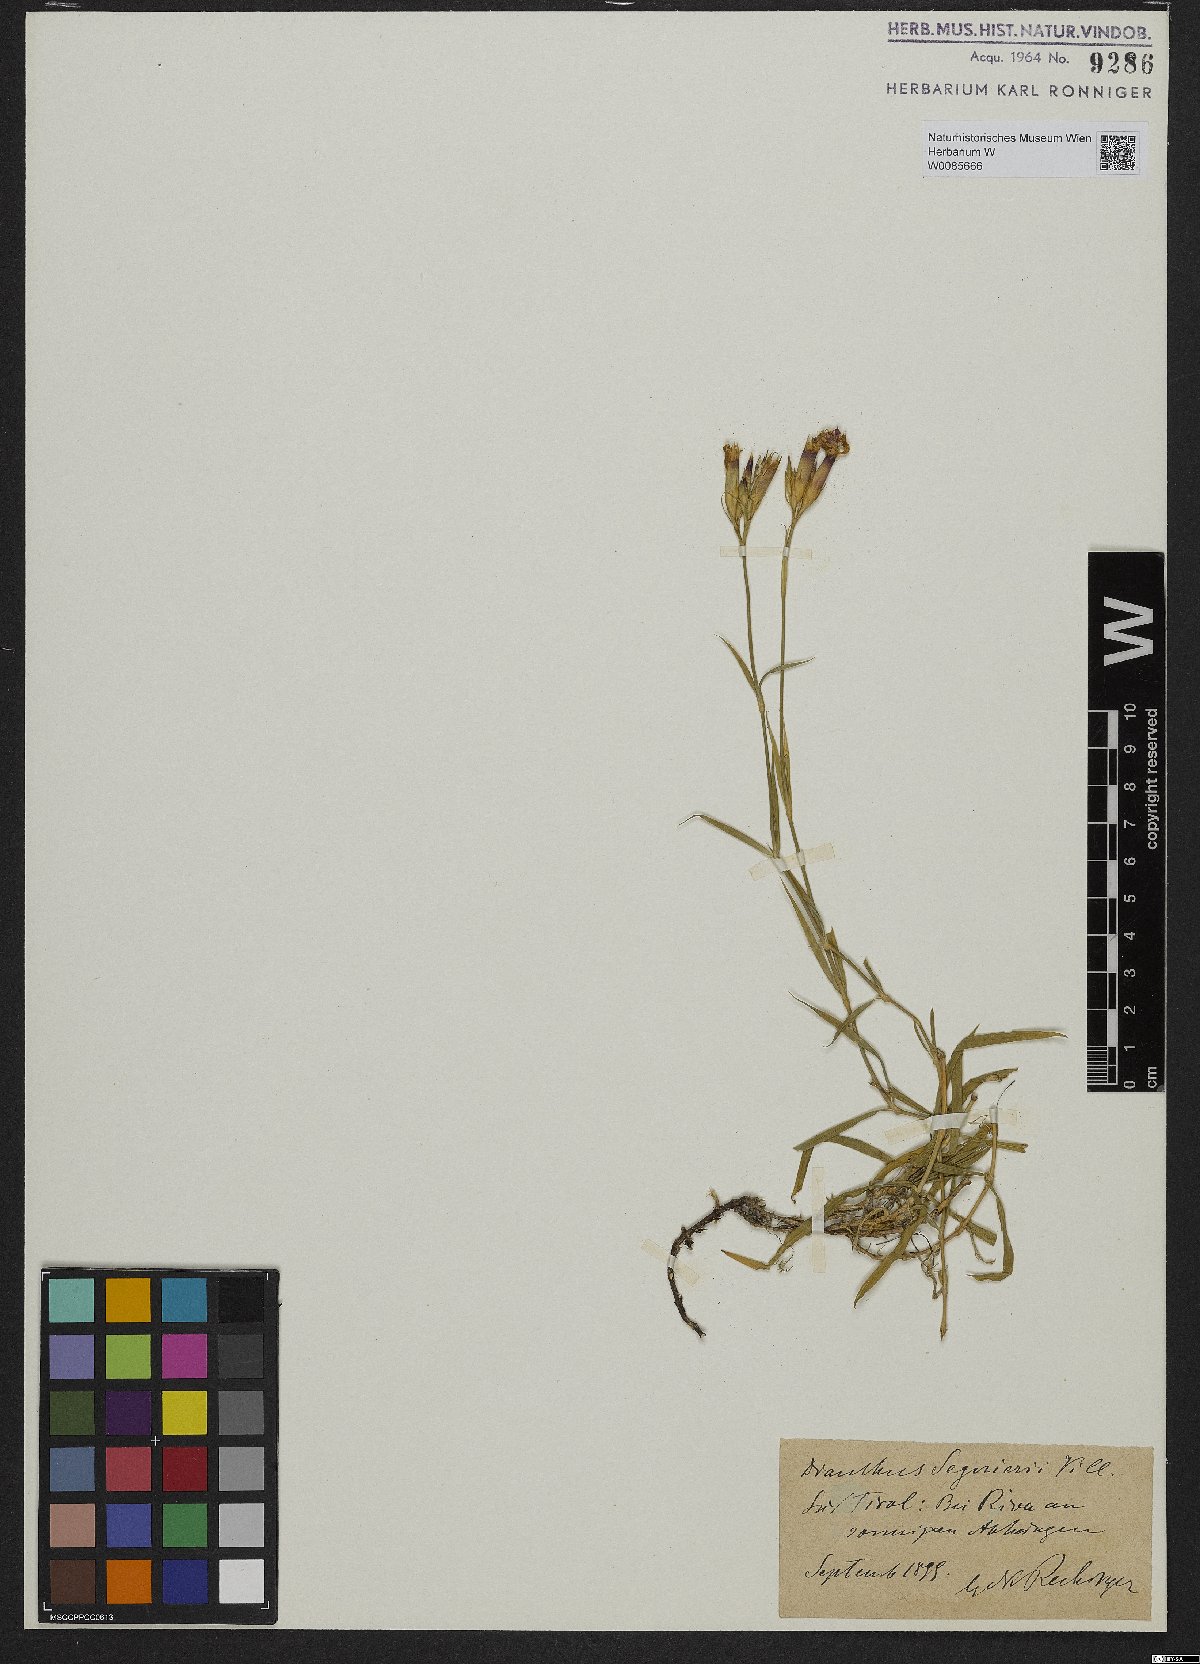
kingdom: Plantae
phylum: Tracheophyta
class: Magnoliopsida
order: Caryophyllales
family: Caryophyllaceae
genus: Dianthus
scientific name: Dianthus seguieri
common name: Ragged pink
